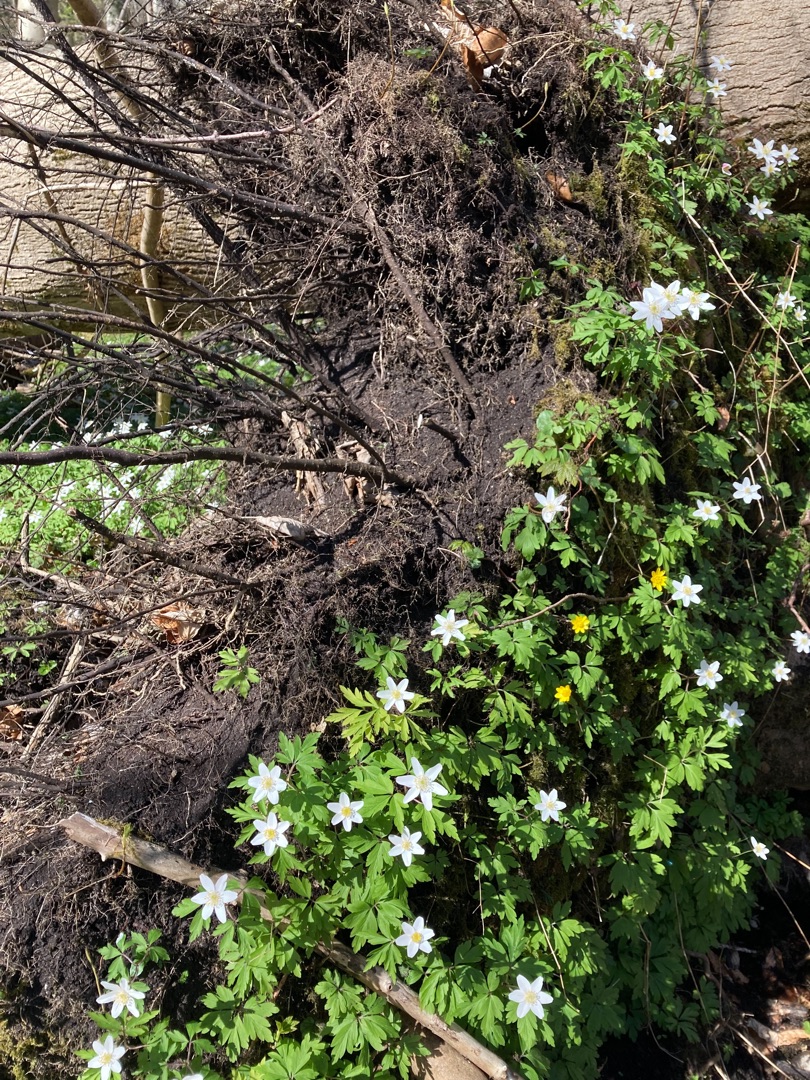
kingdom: Plantae
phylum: Tracheophyta
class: Magnoliopsida
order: Ranunculales
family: Ranunculaceae
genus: Anemone
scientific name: Anemone nemorosa
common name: Hvid anemone
